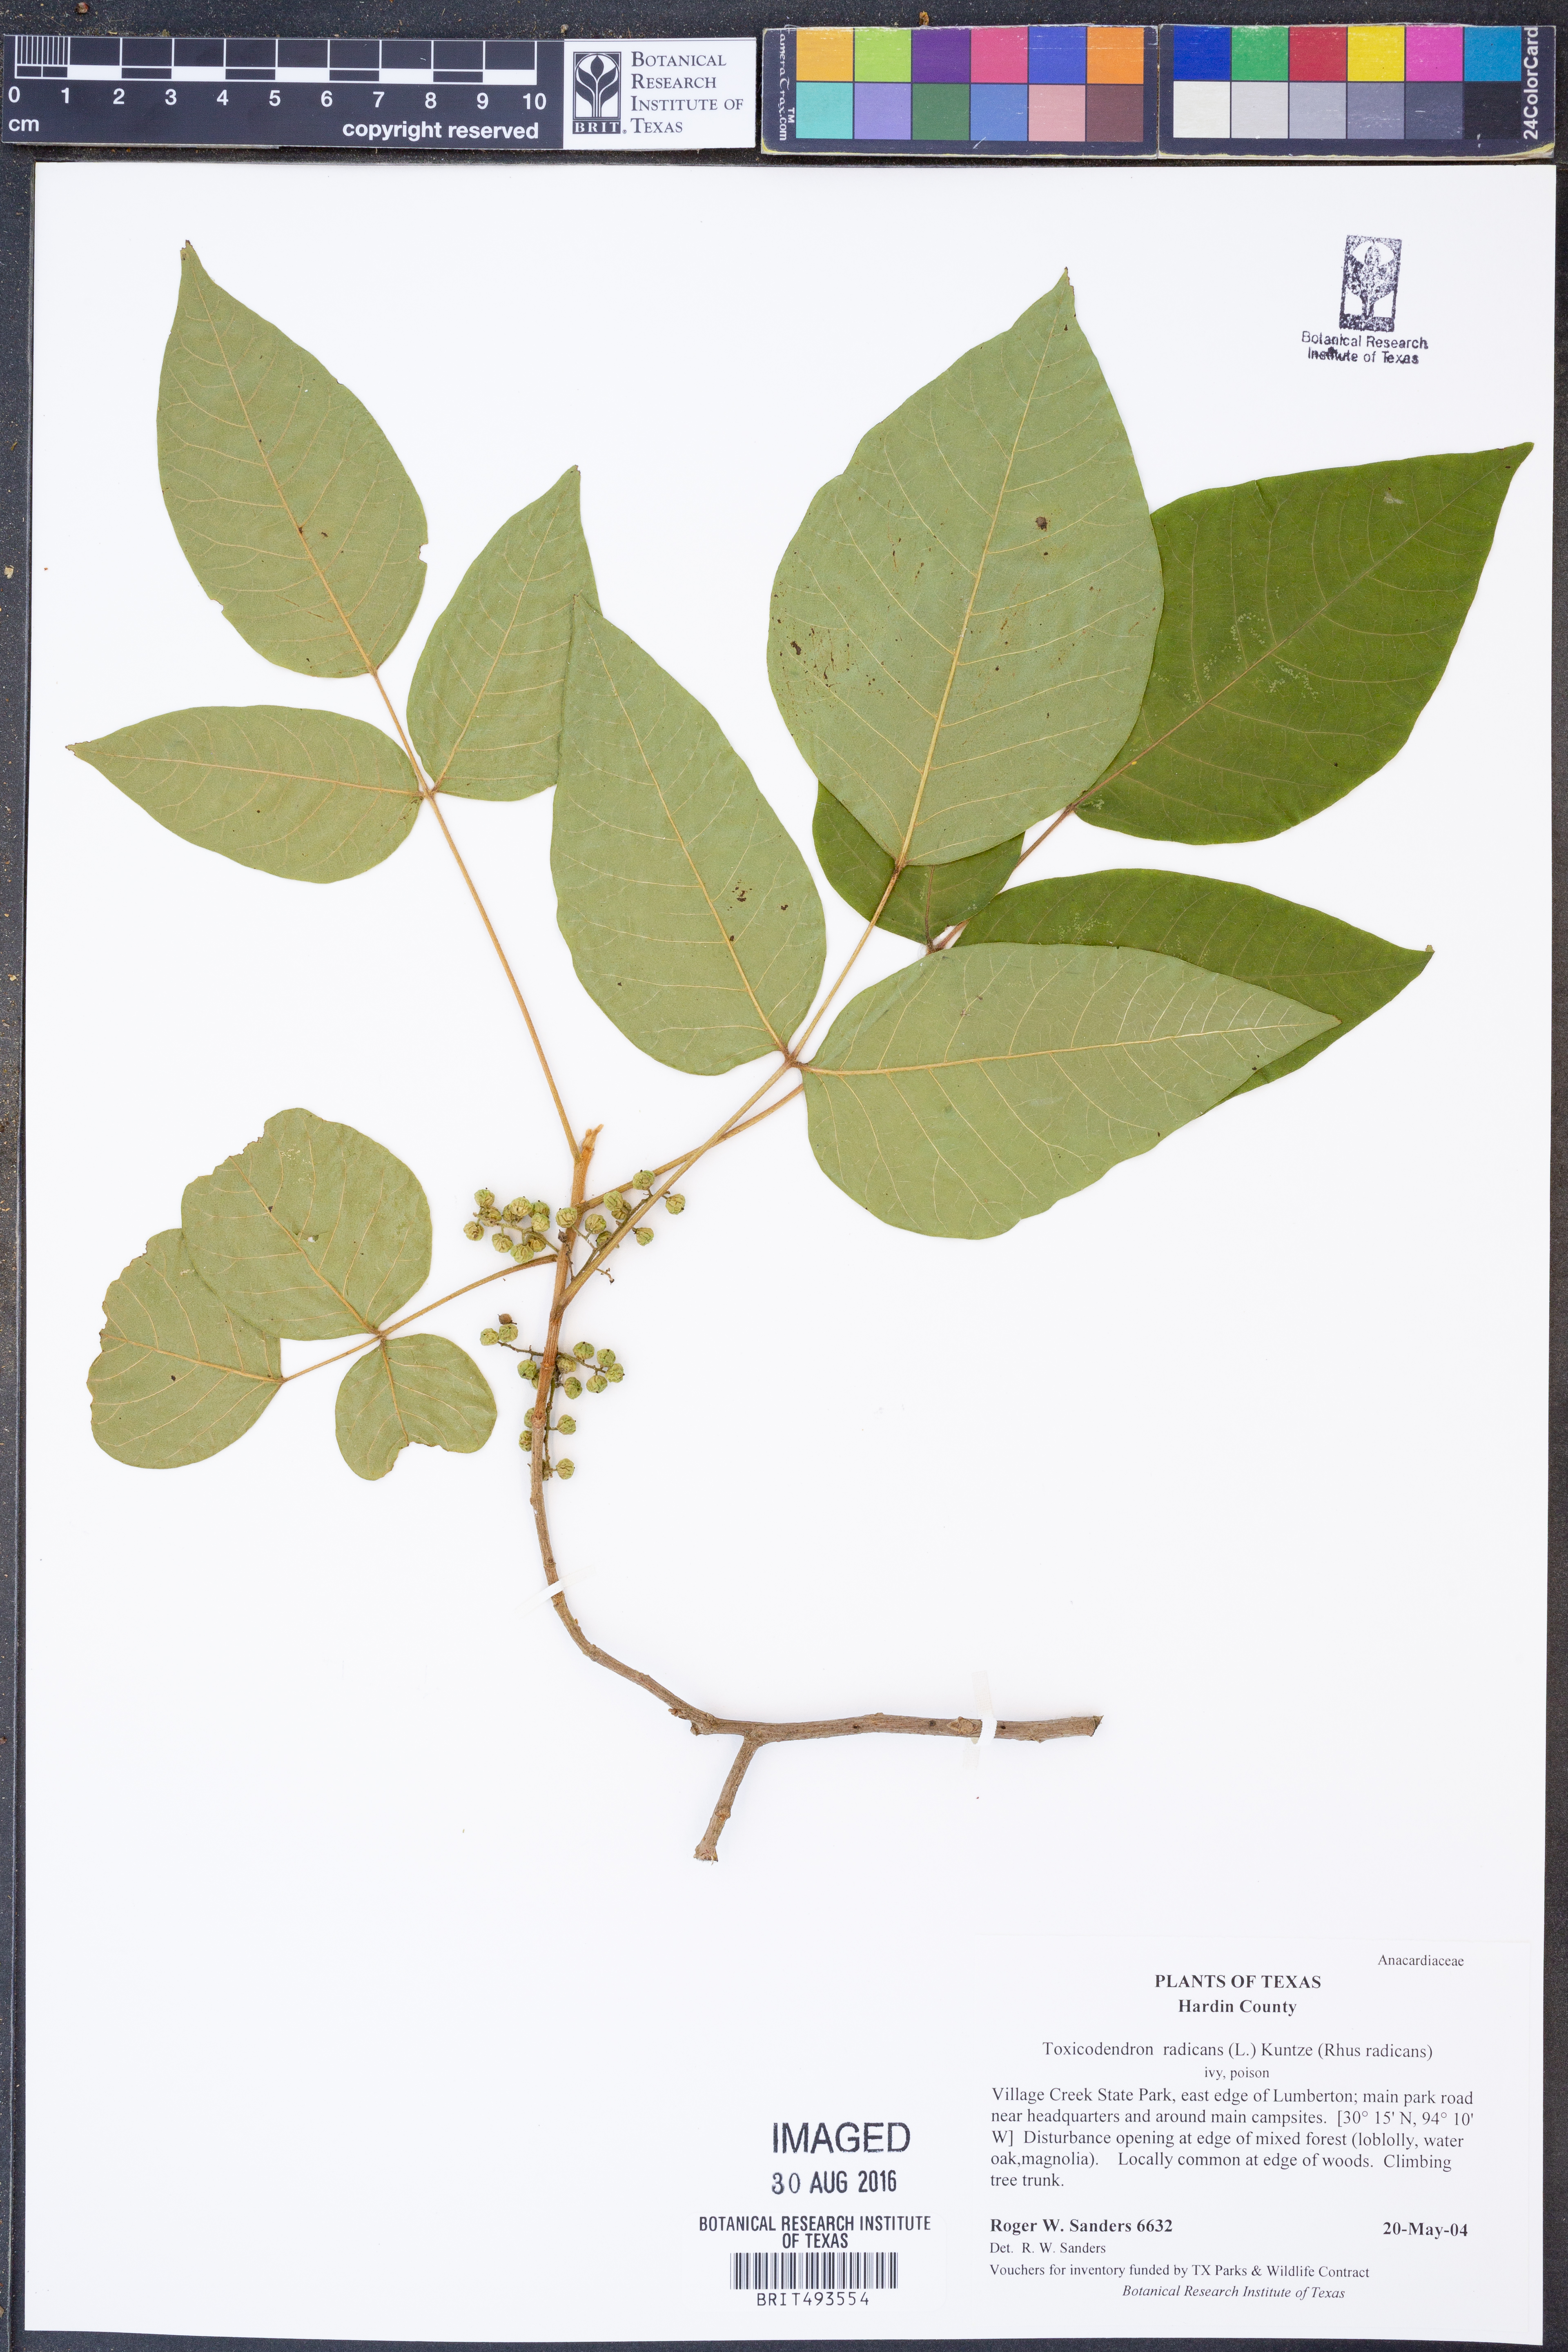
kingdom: Plantae
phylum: Tracheophyta
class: Magnoliopsida
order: Sapindales
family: Anacardiaceae
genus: Toxicodendron
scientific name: Toxicodendron radicans
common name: Poison ivy
